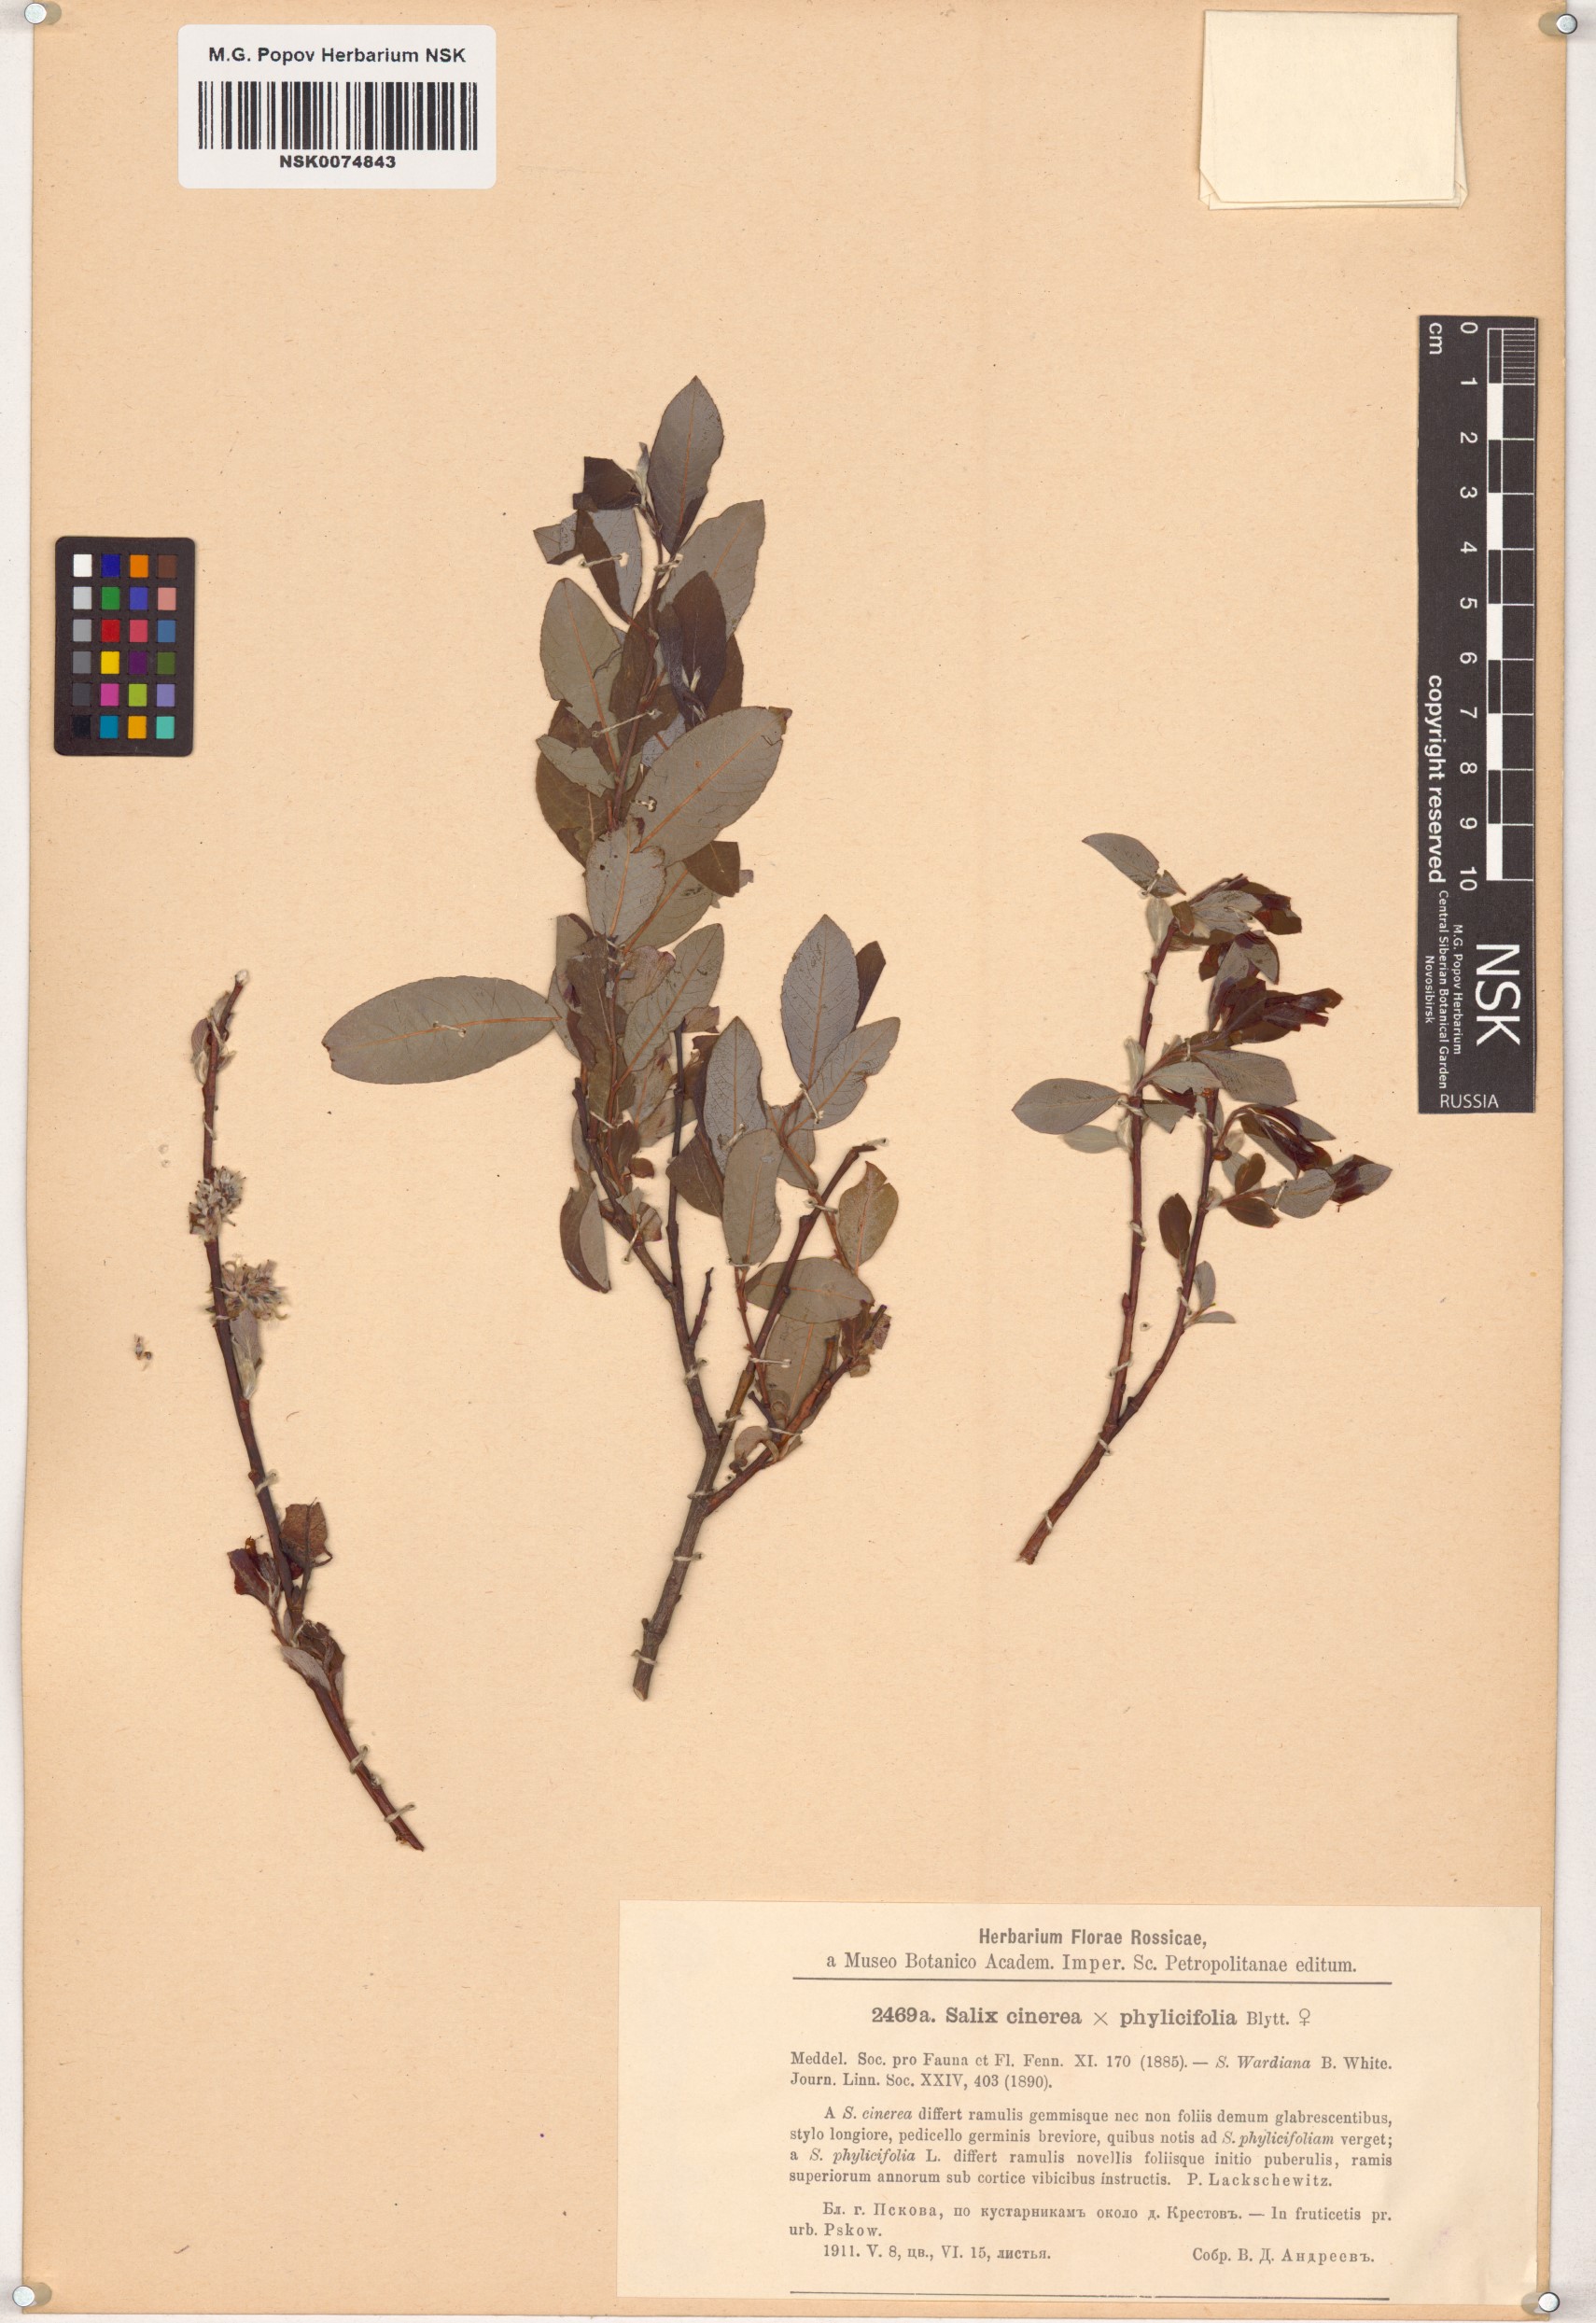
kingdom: Plantae
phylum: Tracheophyta
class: Magnoliopsida
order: Malpighiales
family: Salicaceae
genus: Salix
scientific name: Salix
